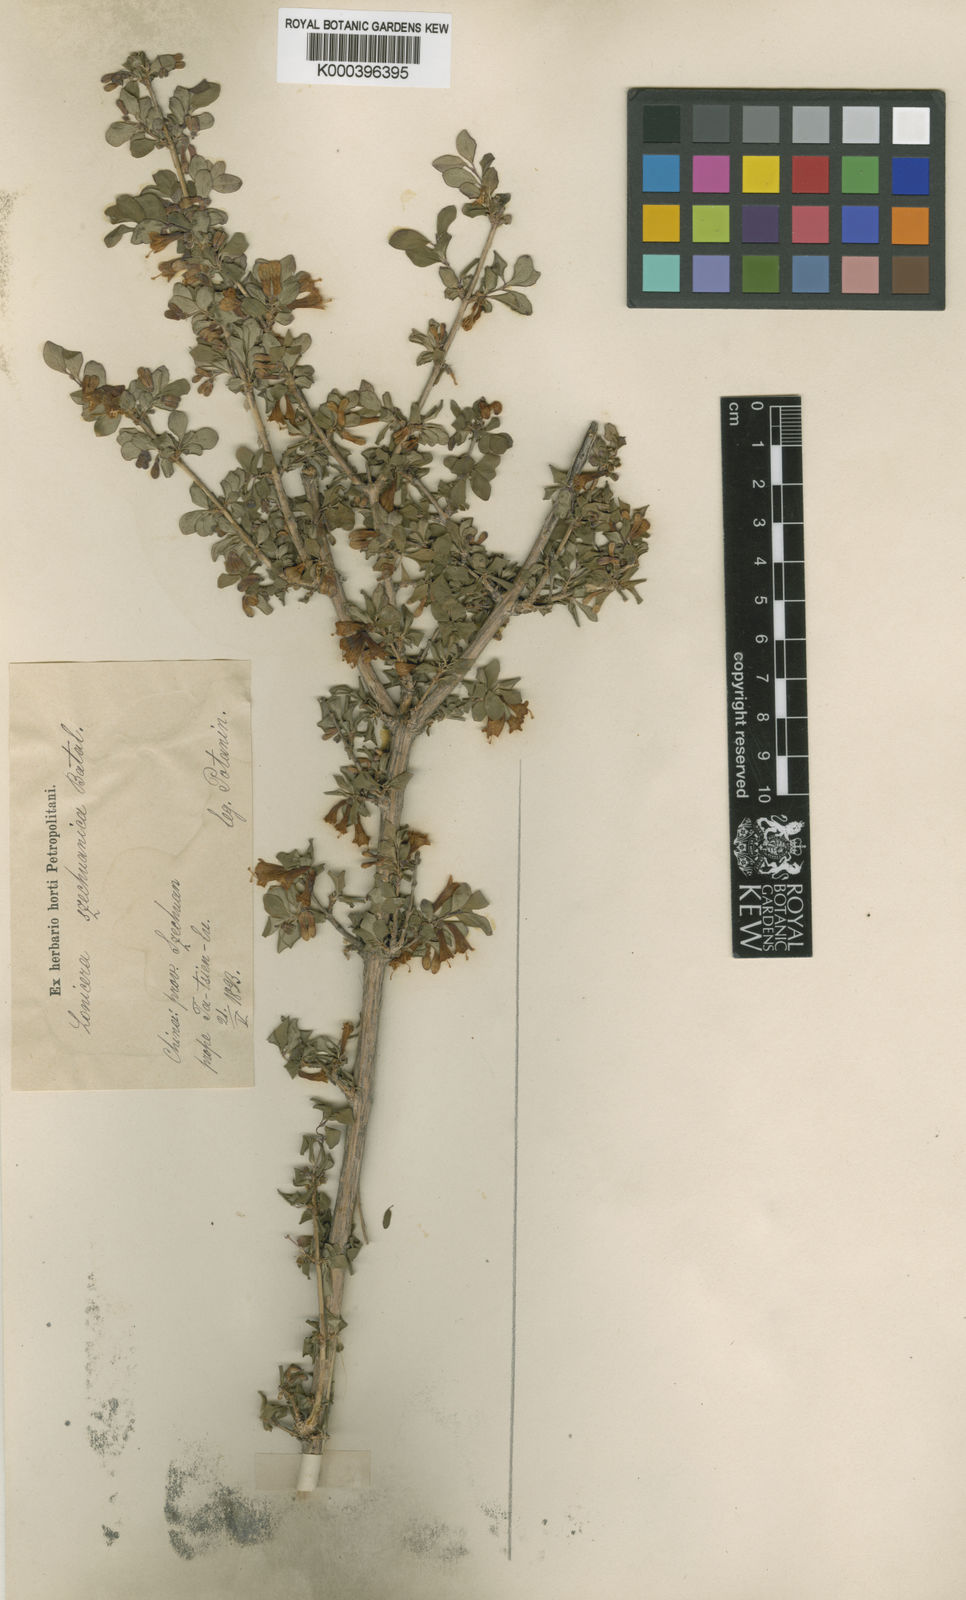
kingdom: Plantae
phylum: Tracheophyta
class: Magnoliopsida
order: Dipsacales
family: Caprifoliaceae
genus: Lonicera
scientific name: Lonicera tangutica
